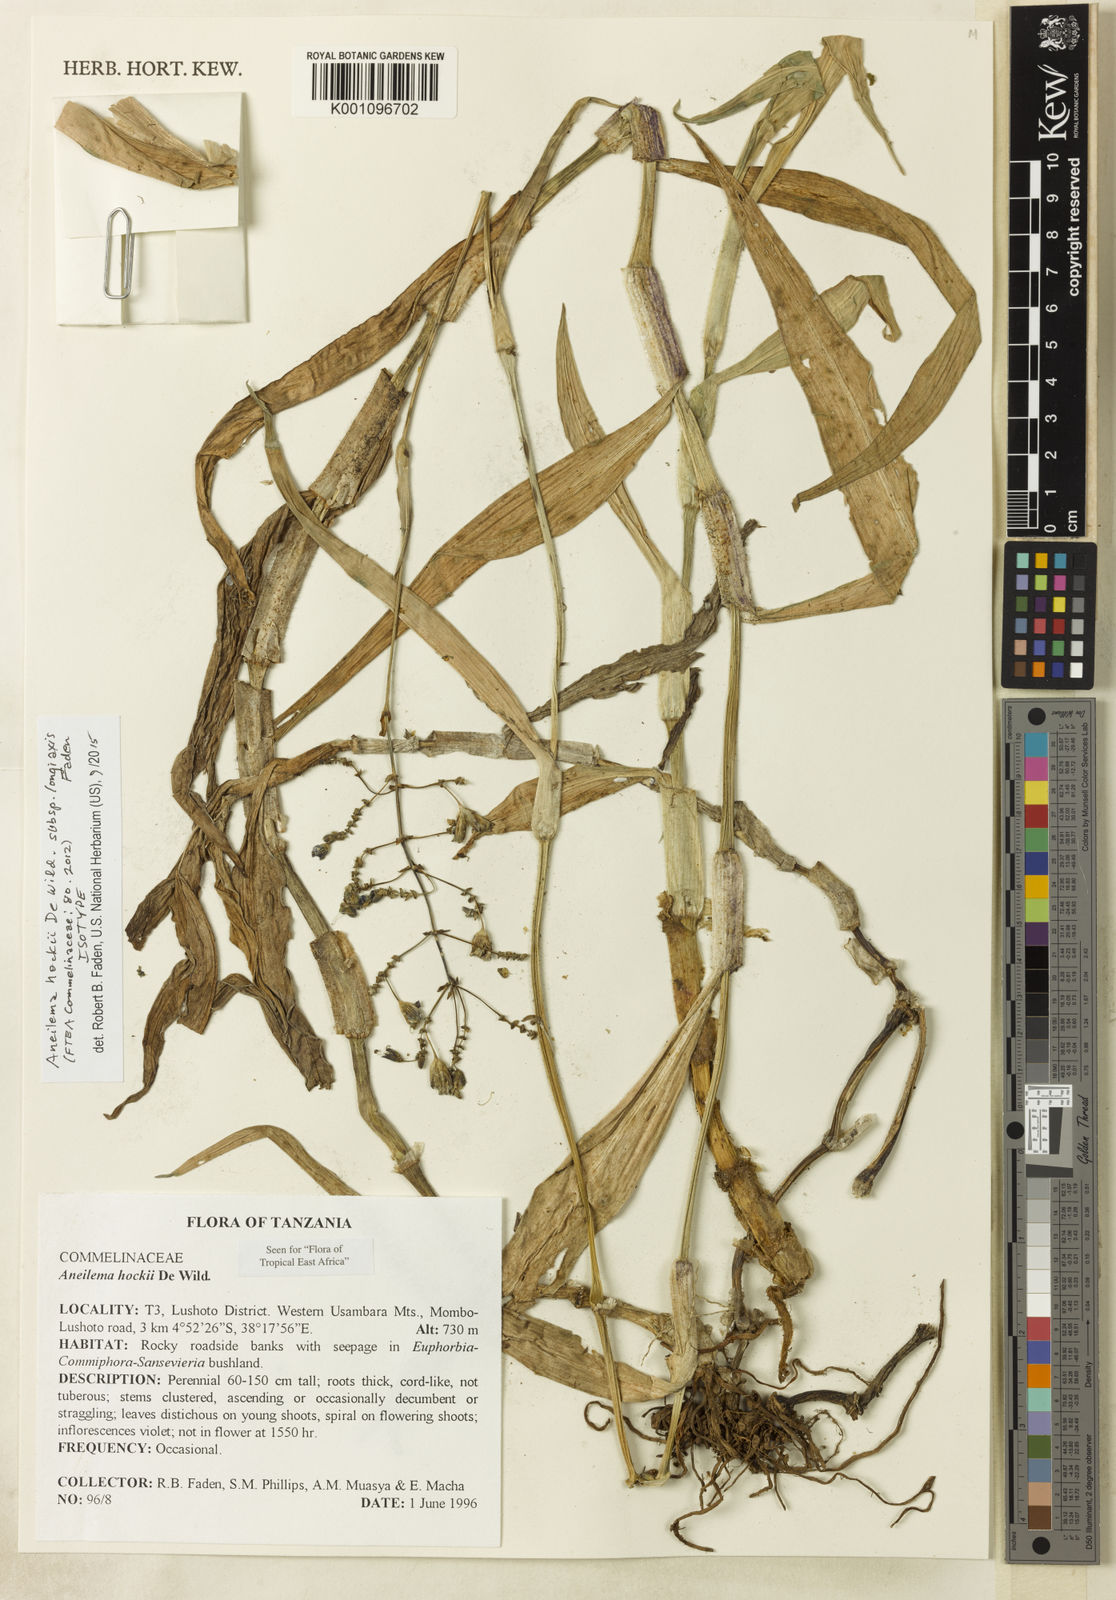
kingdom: Plantae
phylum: Tracheophyta
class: Liliopsida
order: Commelinales
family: Commelinaceae
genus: Aneilema
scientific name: Aneilema hockii
